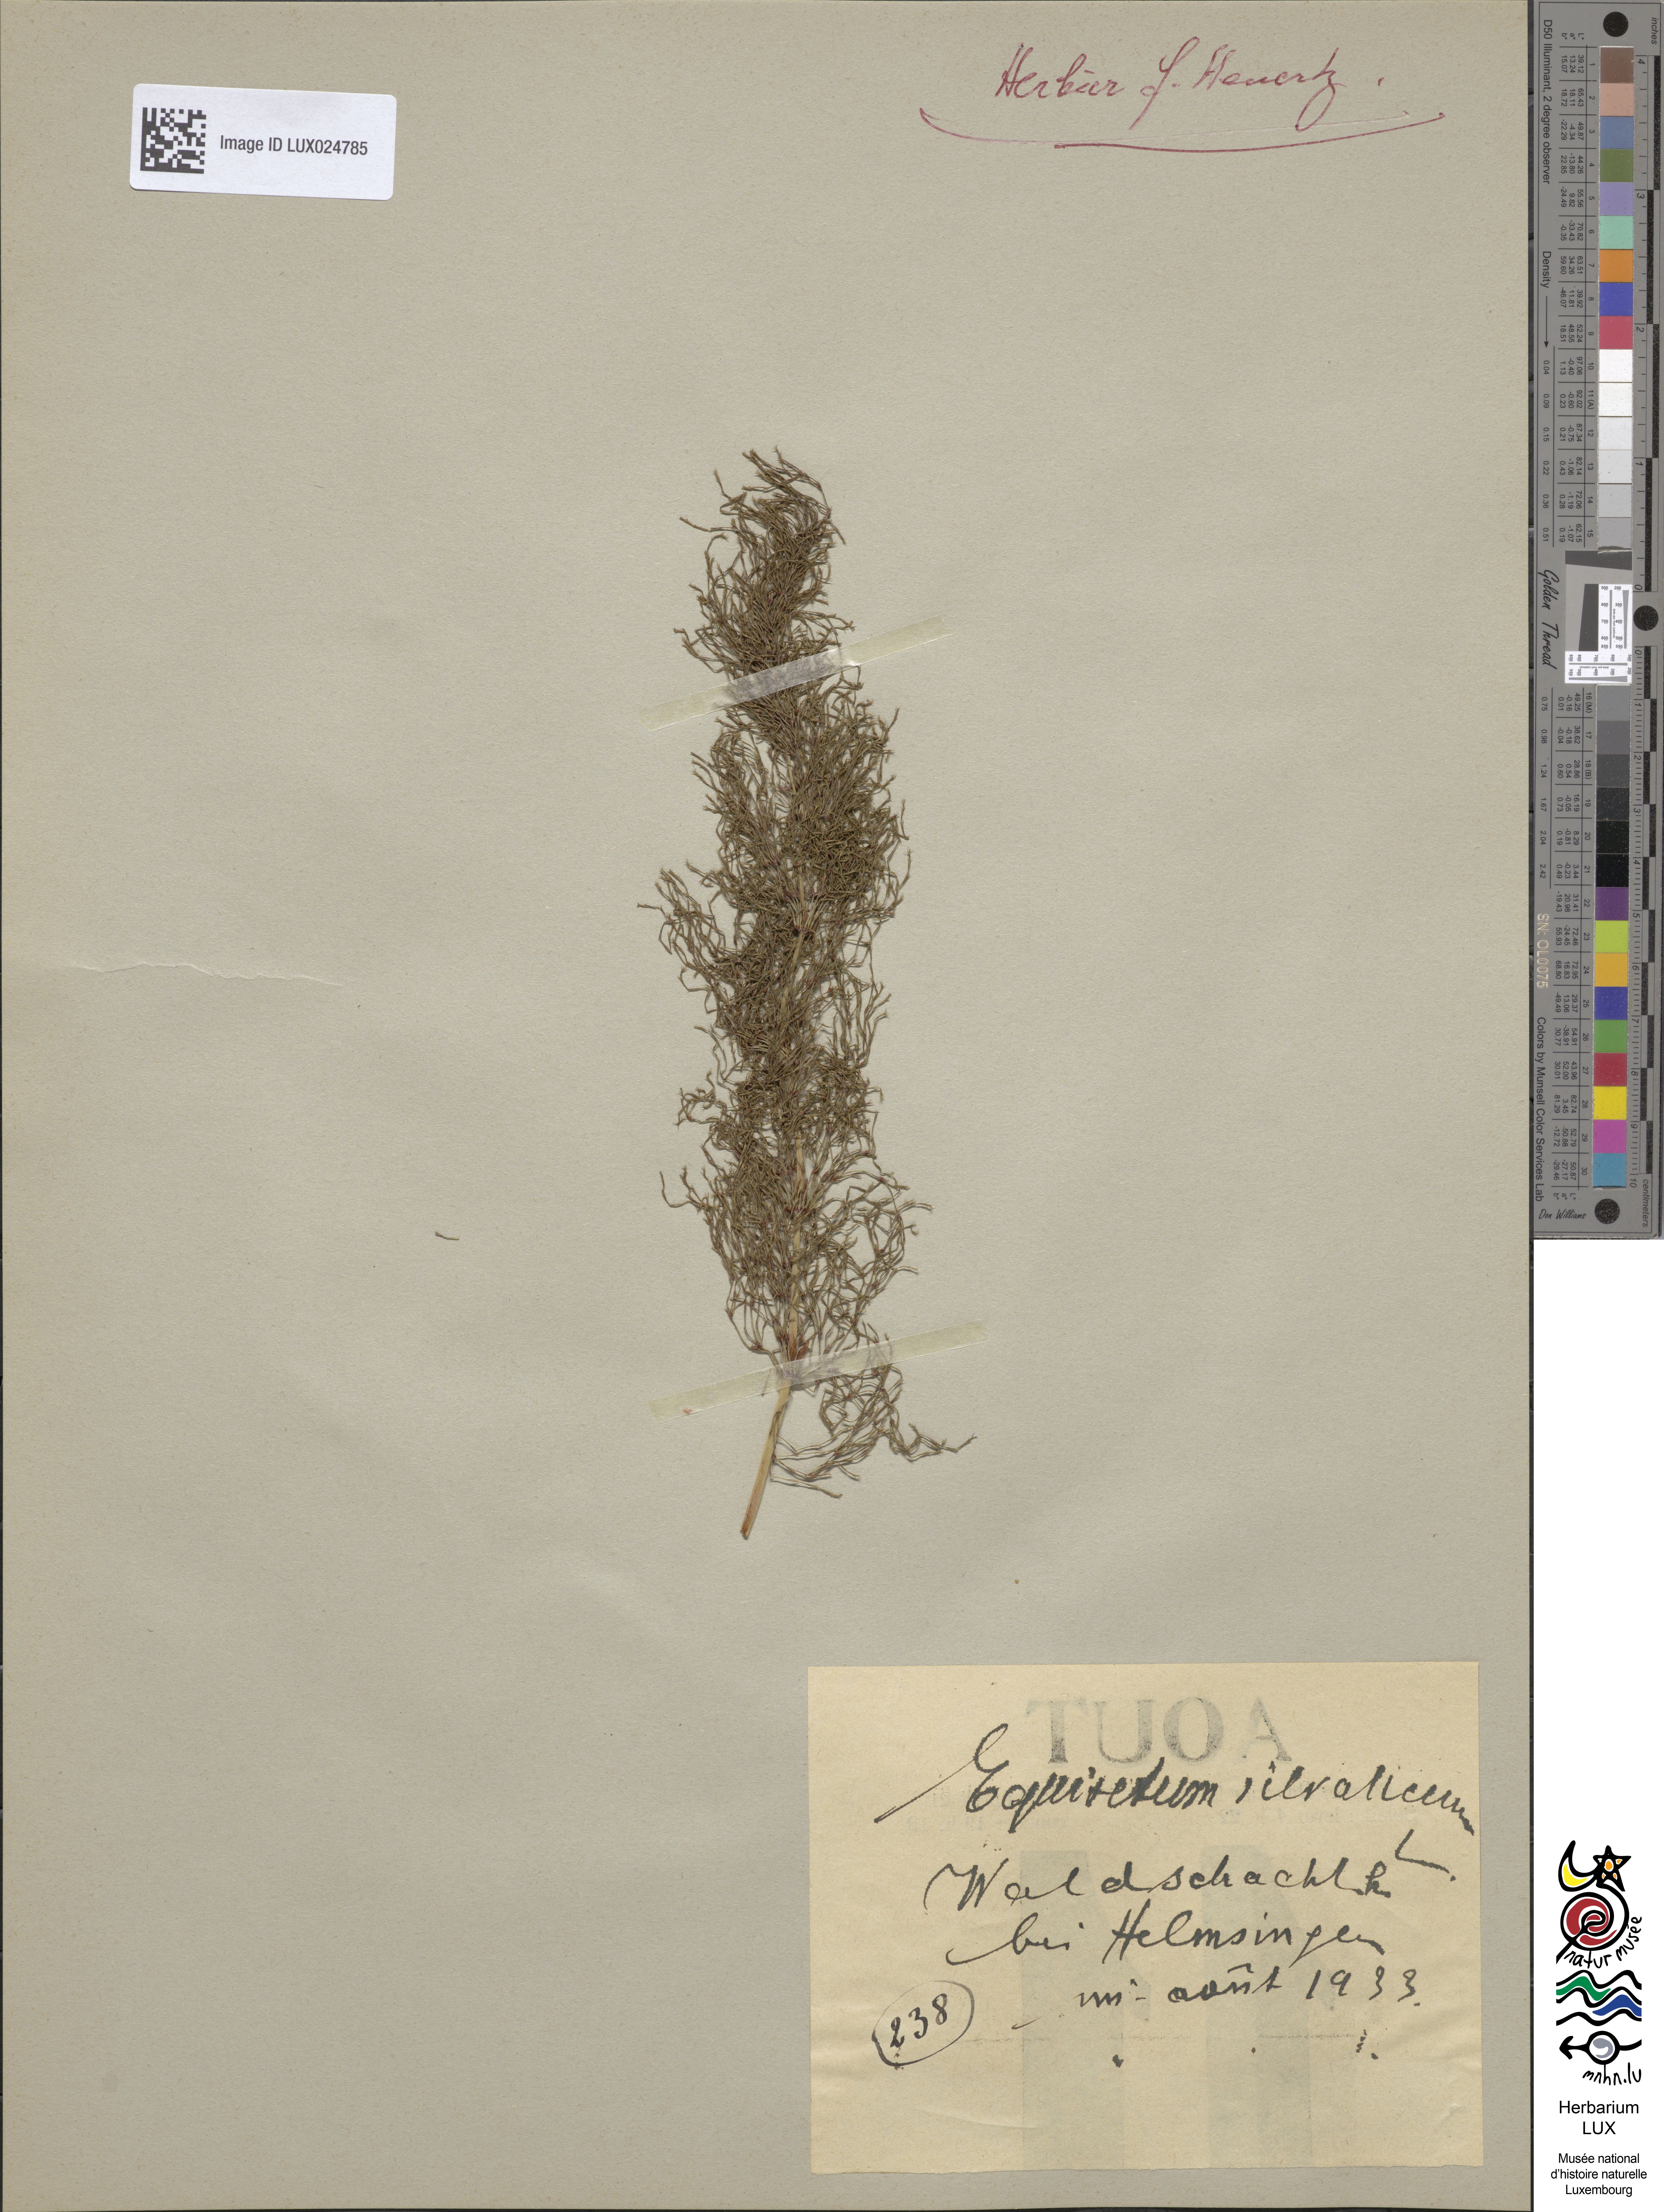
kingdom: Plantae
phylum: Tracheophyta
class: Polypodiopsida
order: Equisetales
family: Equisetaceae
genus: Equisetum
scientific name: Equisetum sylvaticum
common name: Wood horsetail
